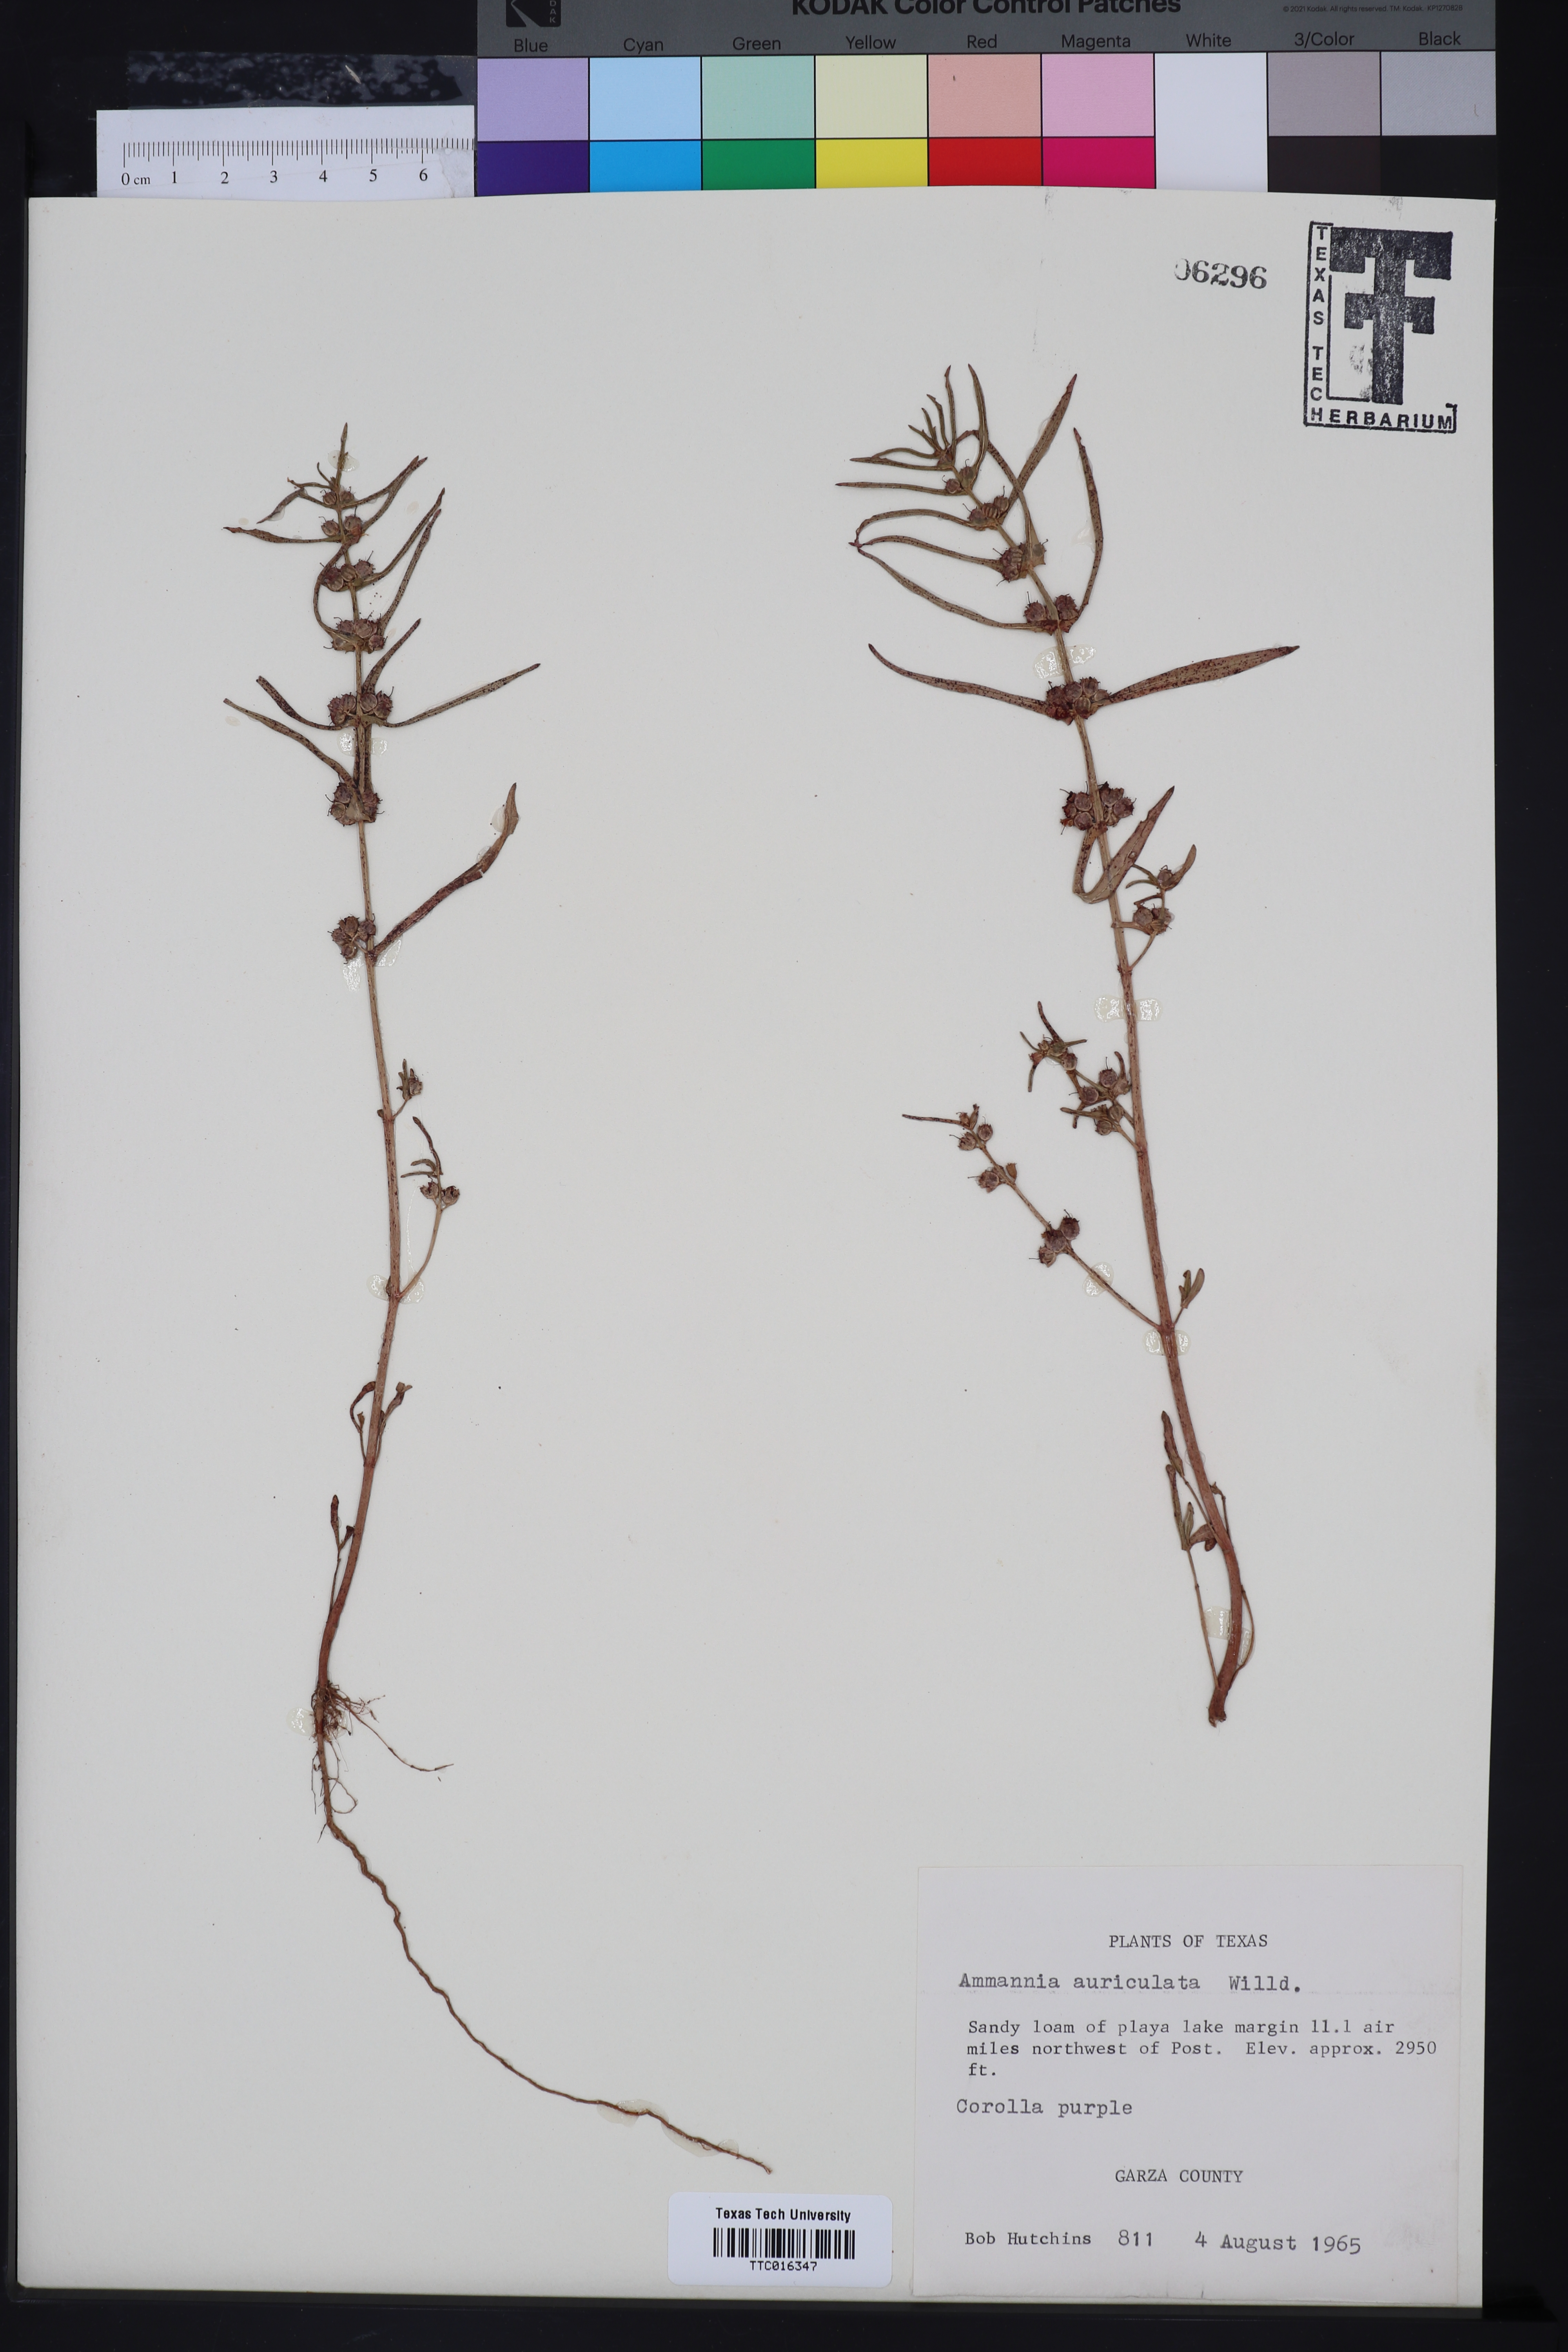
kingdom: Plantae
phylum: Tracheophyta
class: Magnoliopsida
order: Myrtales
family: Lythraceae
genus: Ammannia
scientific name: Ammannia auriculata
